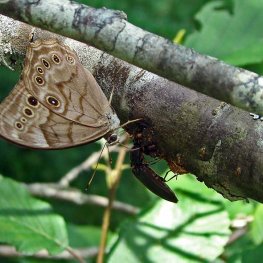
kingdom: Animalia
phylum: Arthropoda
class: Insecta
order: Lepidoptera
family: Nymphalidae
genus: Lethe
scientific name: Lethe anthedon
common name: Northern Pearly-Eye
